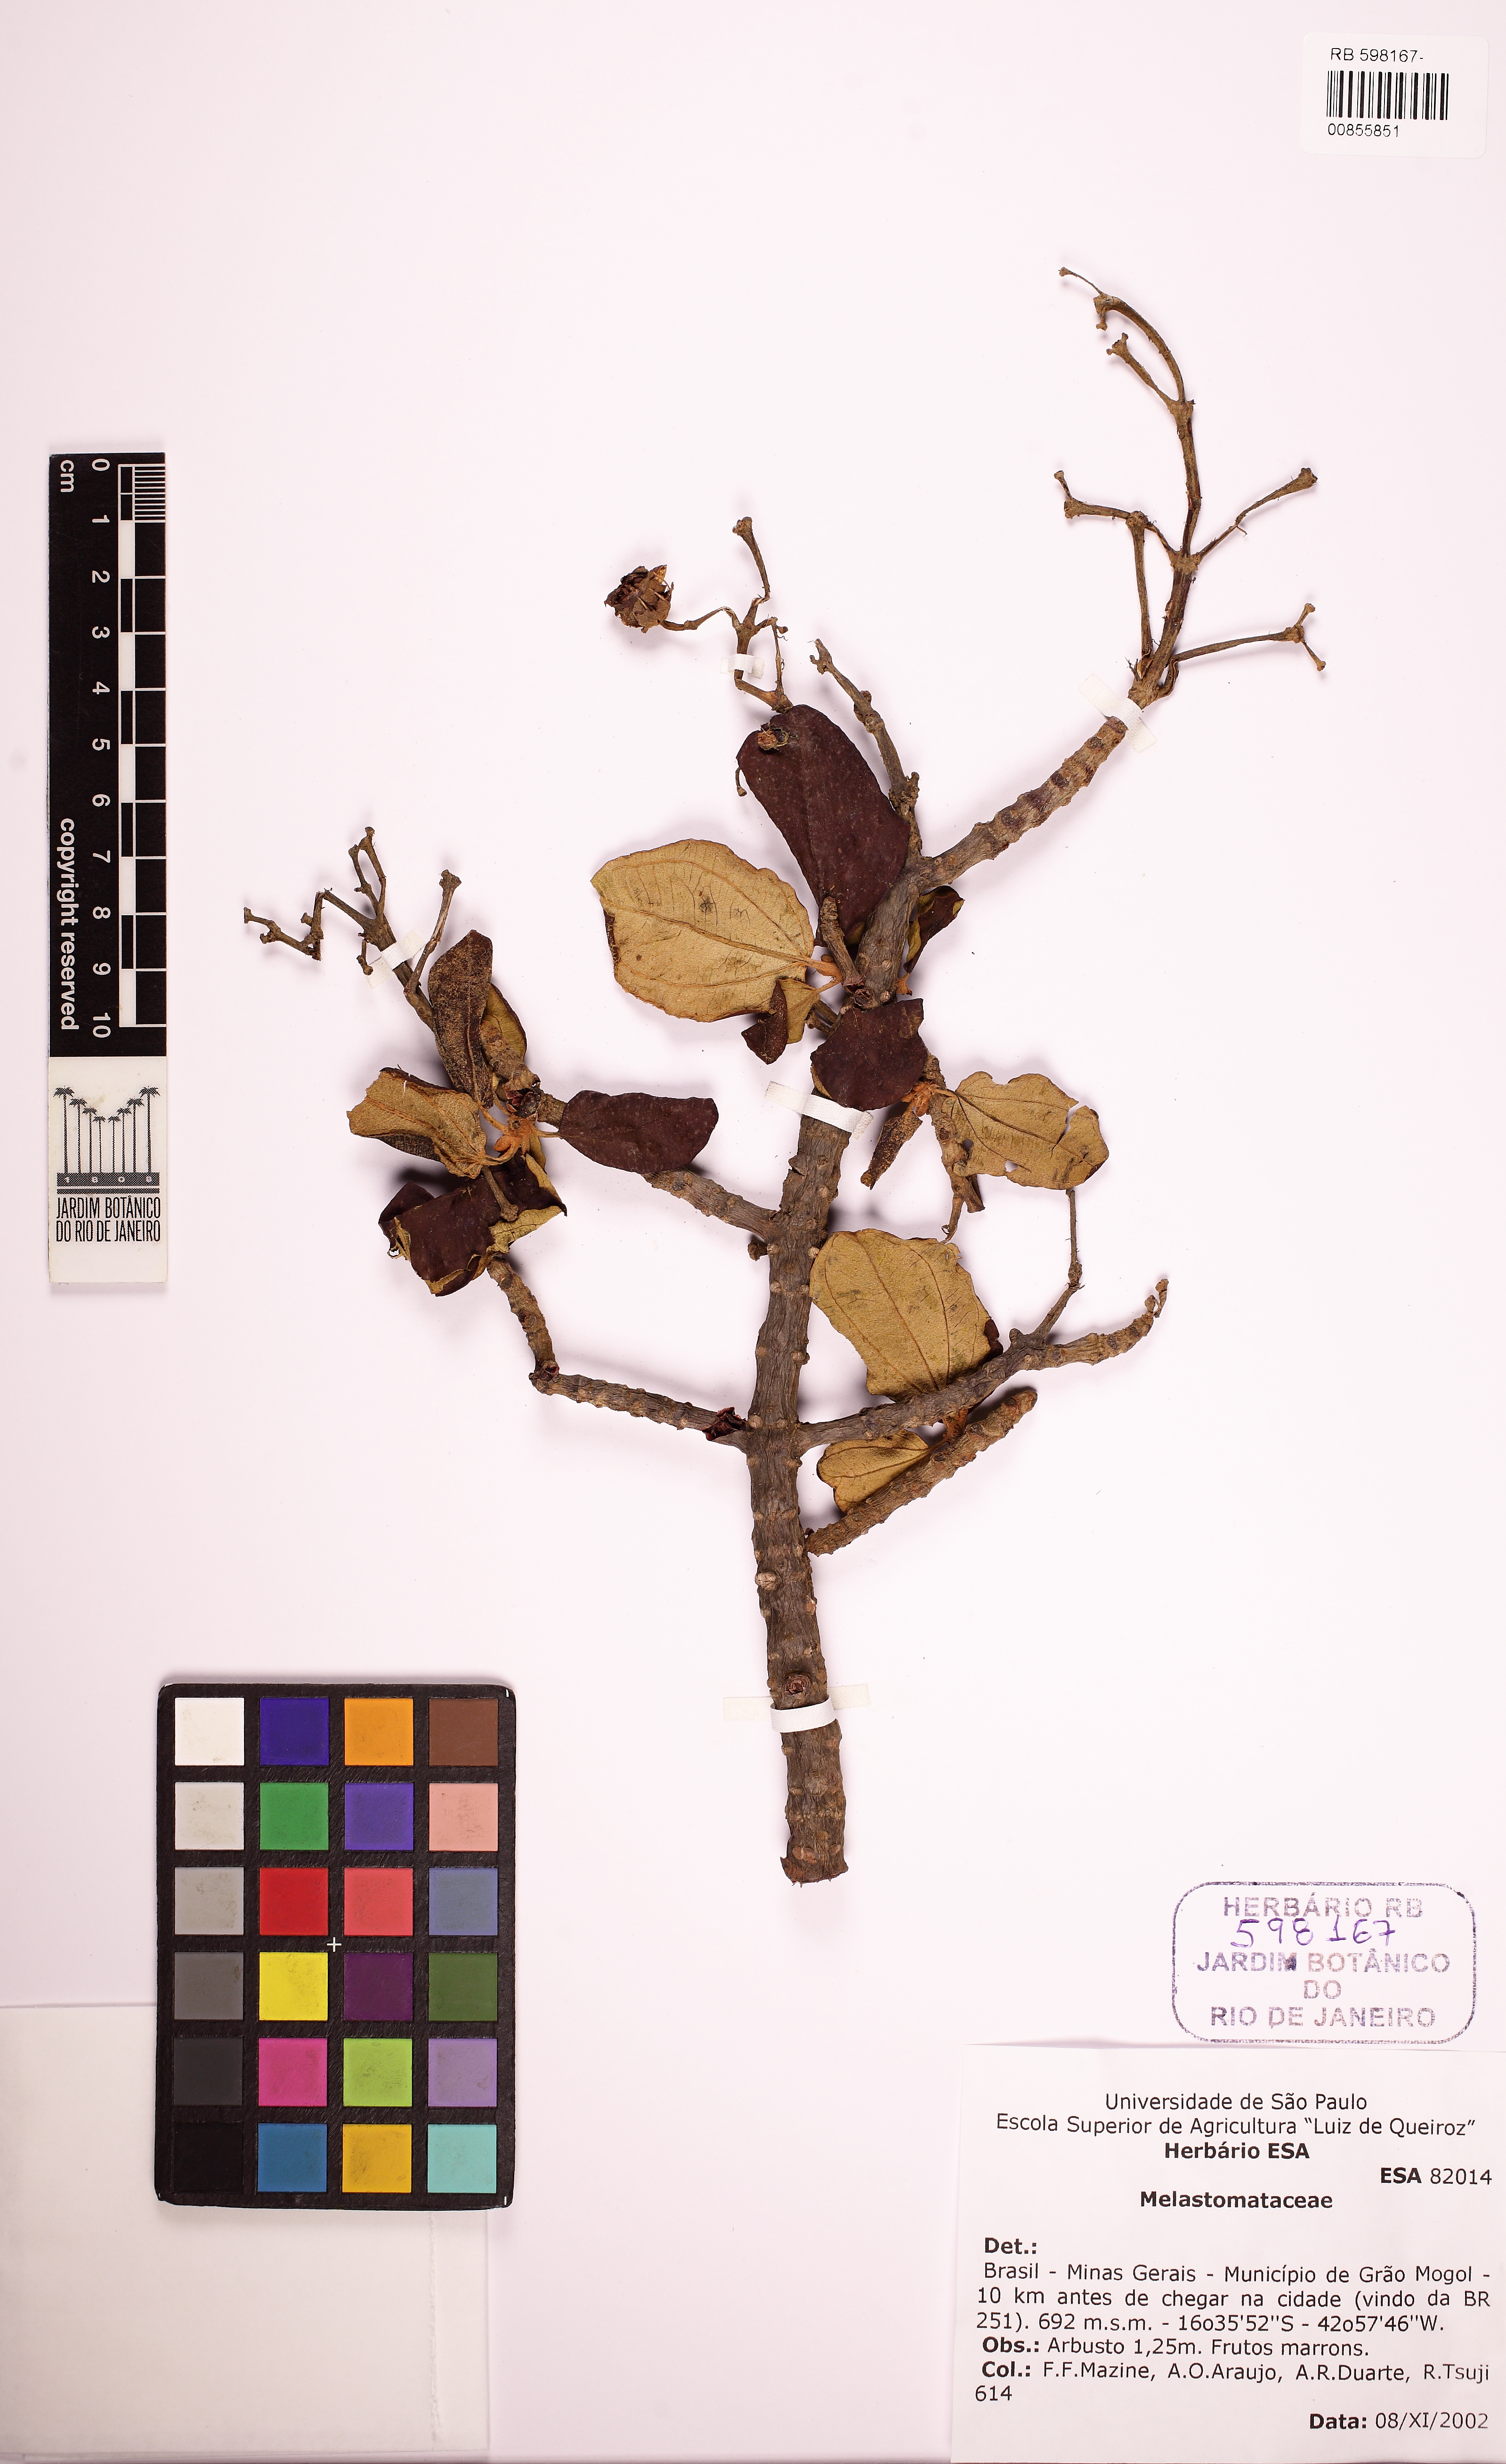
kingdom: Plantae
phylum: Tracheophyta
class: Magnoliopsida
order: Myrtales
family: Melastomataceae
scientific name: Melastomataceae
